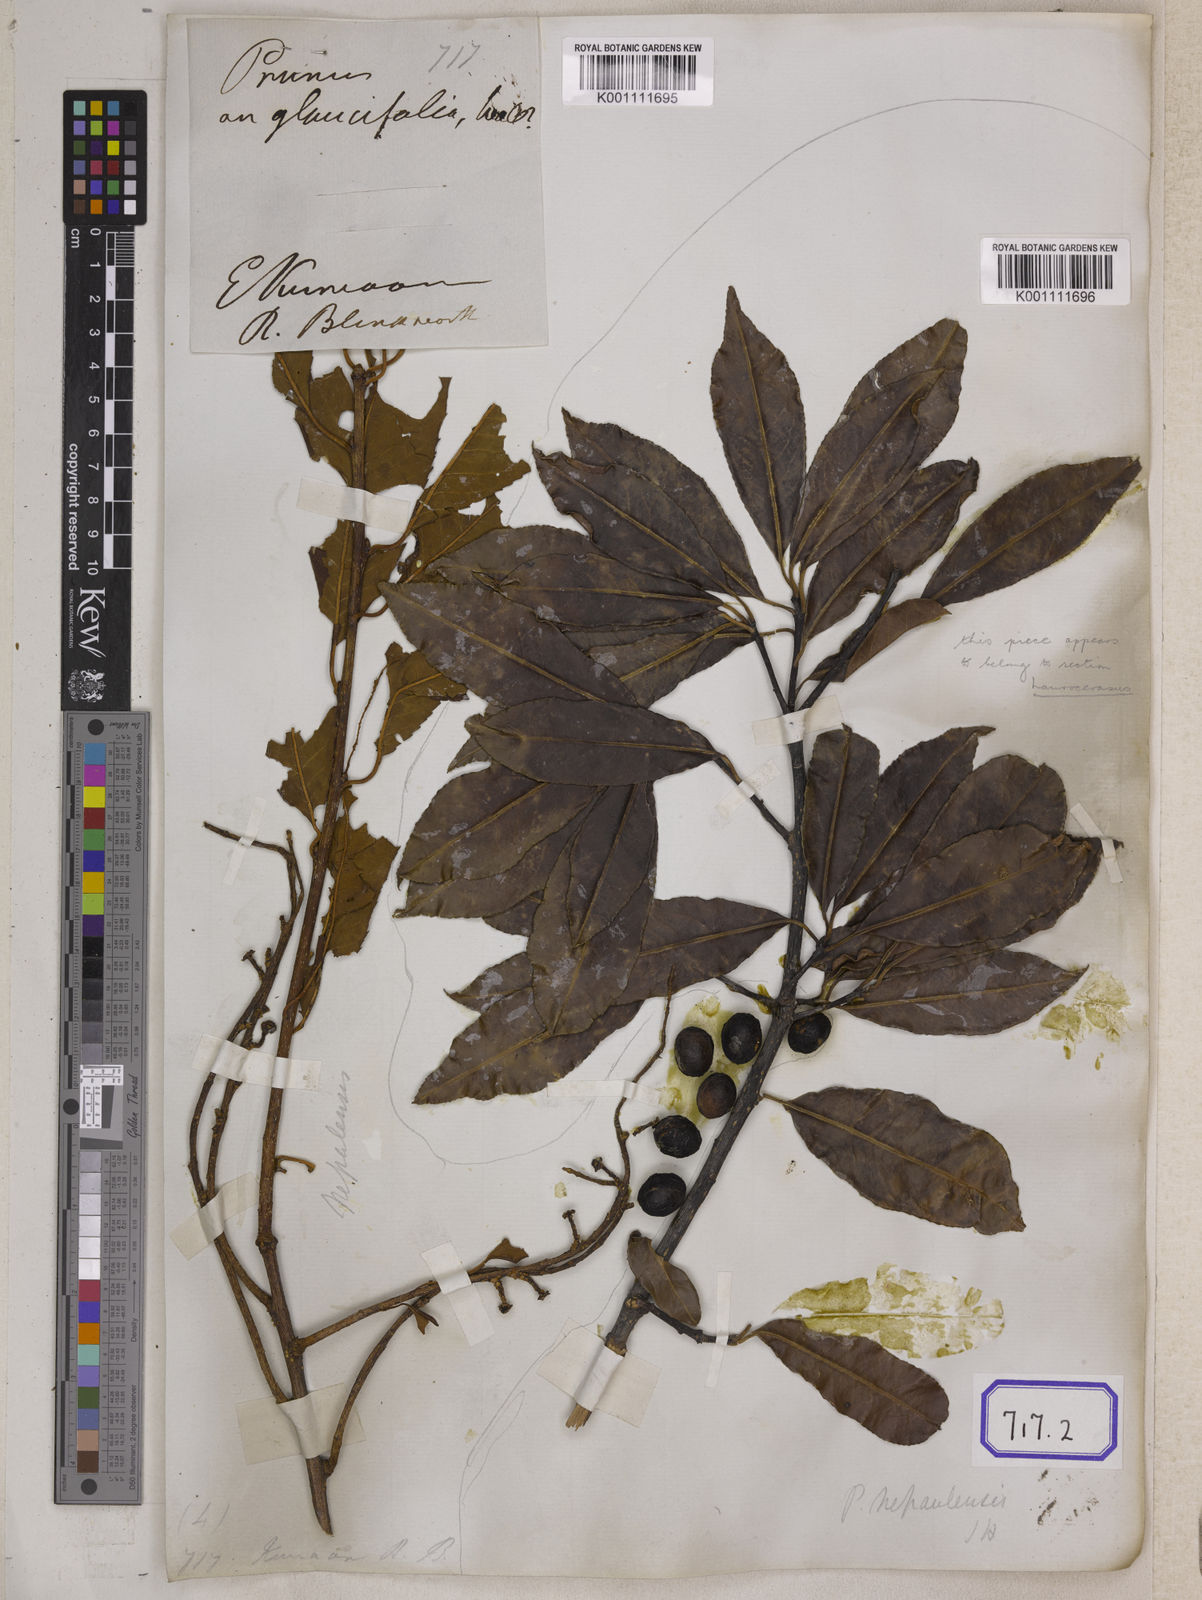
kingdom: Plantae
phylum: Tracheophyta
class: Magnoliopsida
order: Rosales
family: Rosaceae
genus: Prunus
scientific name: Prunus napaulensis
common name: Khasia cherry
